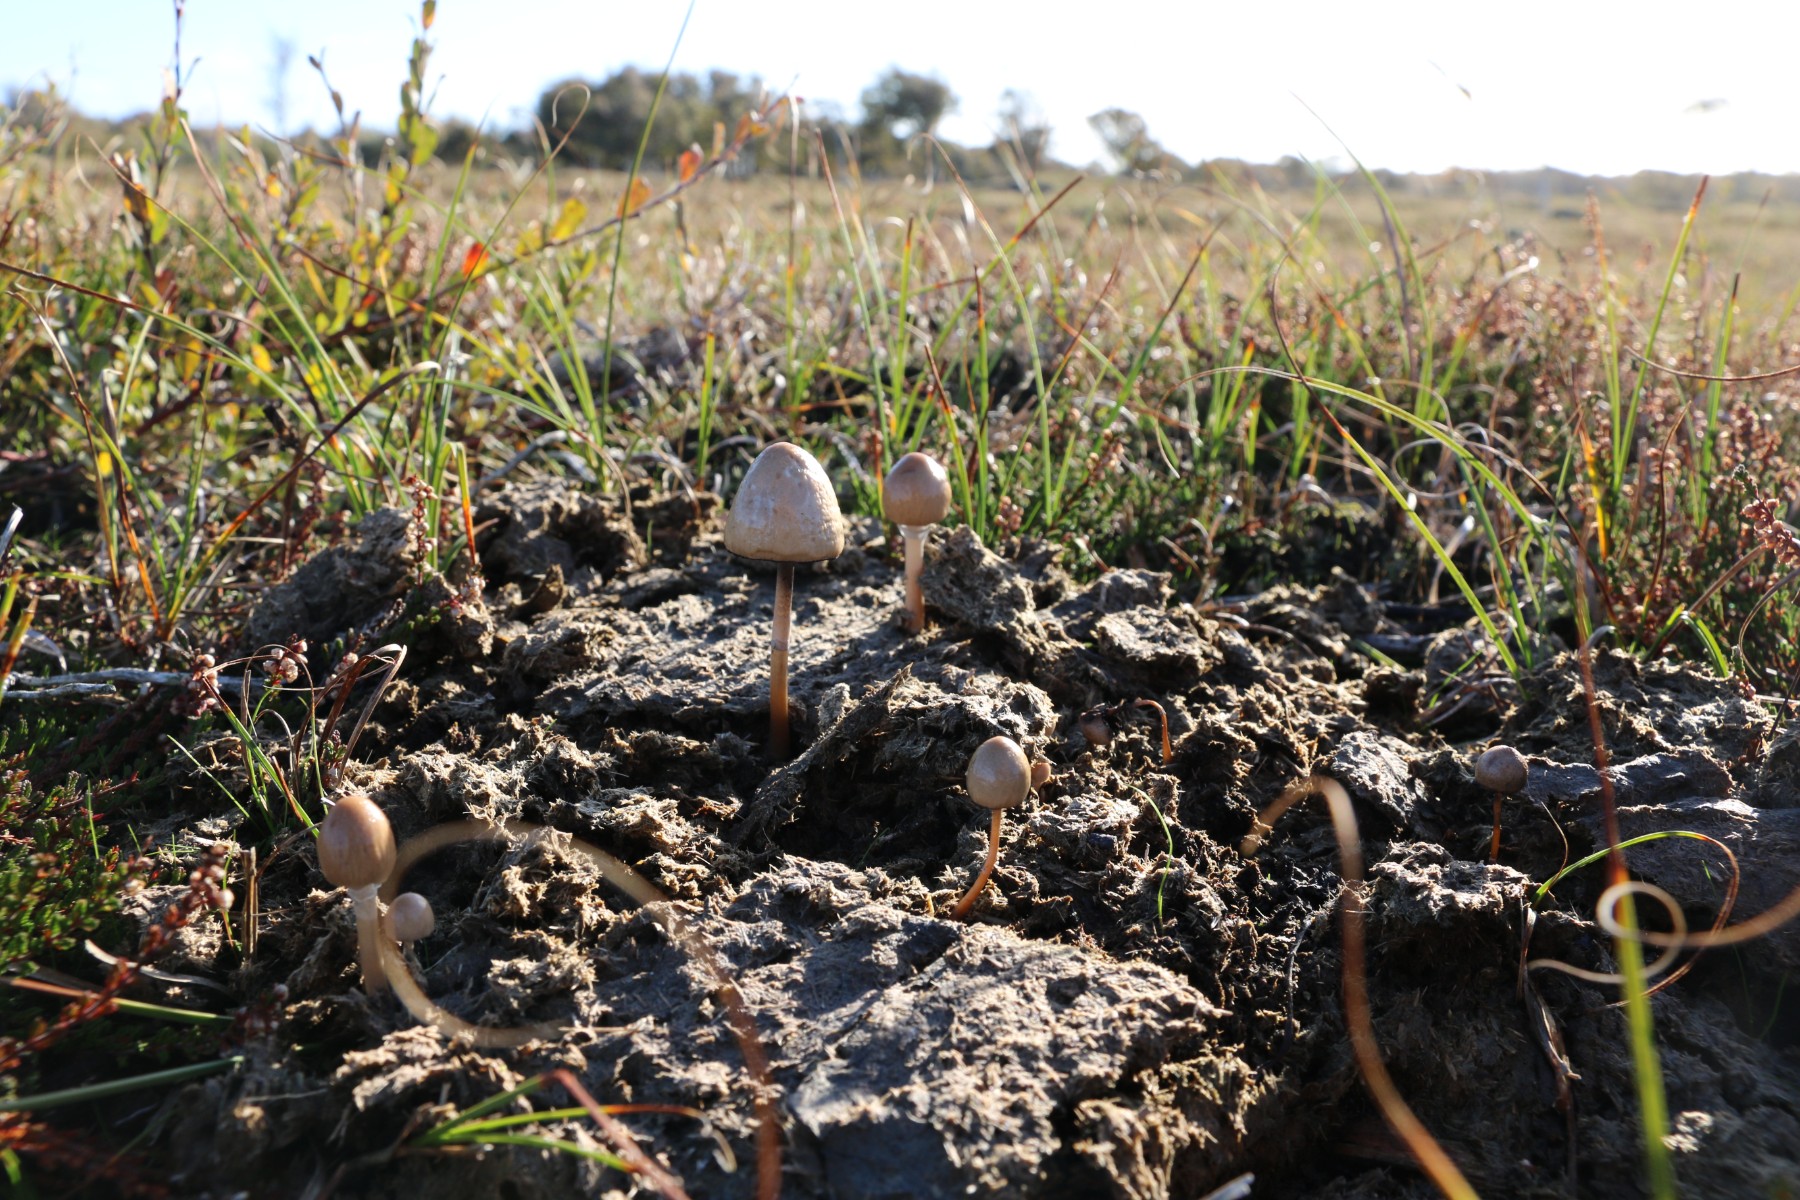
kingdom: Fungi
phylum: Basidiomycota
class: Agaricomycetes
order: Agaricales
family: Bolbitiaceae
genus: Panaeolus
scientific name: Panaeolus semiovatus
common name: ring-glanshat
